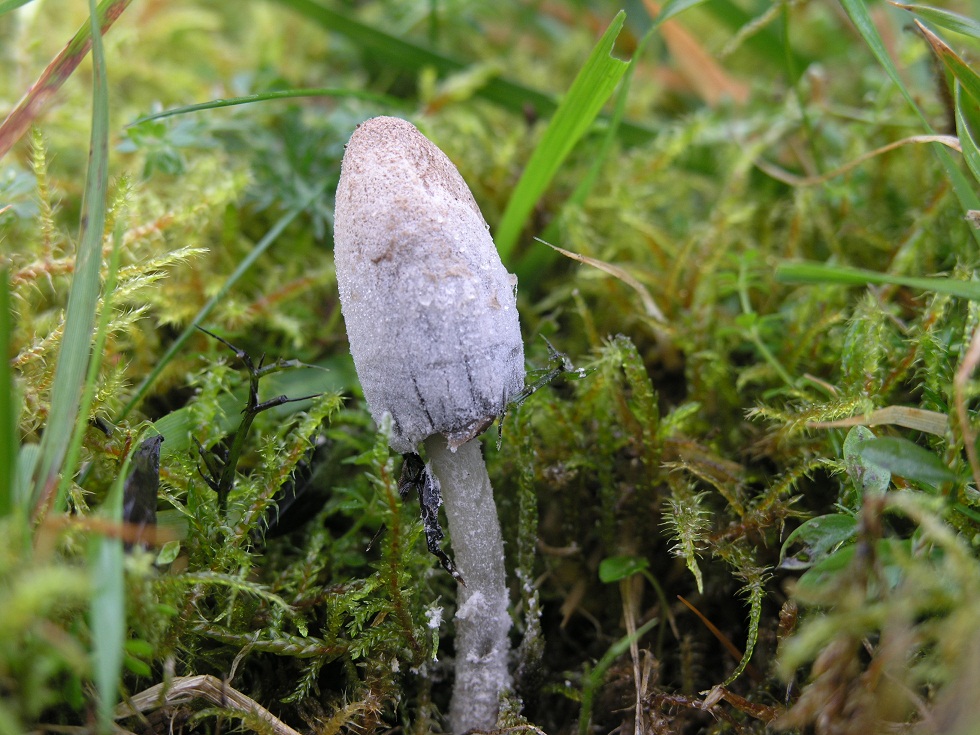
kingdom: Fungi
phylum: Basidiomycota
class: Agaricomycetes
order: Agaricales
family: Psathyrellaceae
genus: Coprinopsis
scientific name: Coprinopsis semitalis
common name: gråpudret blækhat
